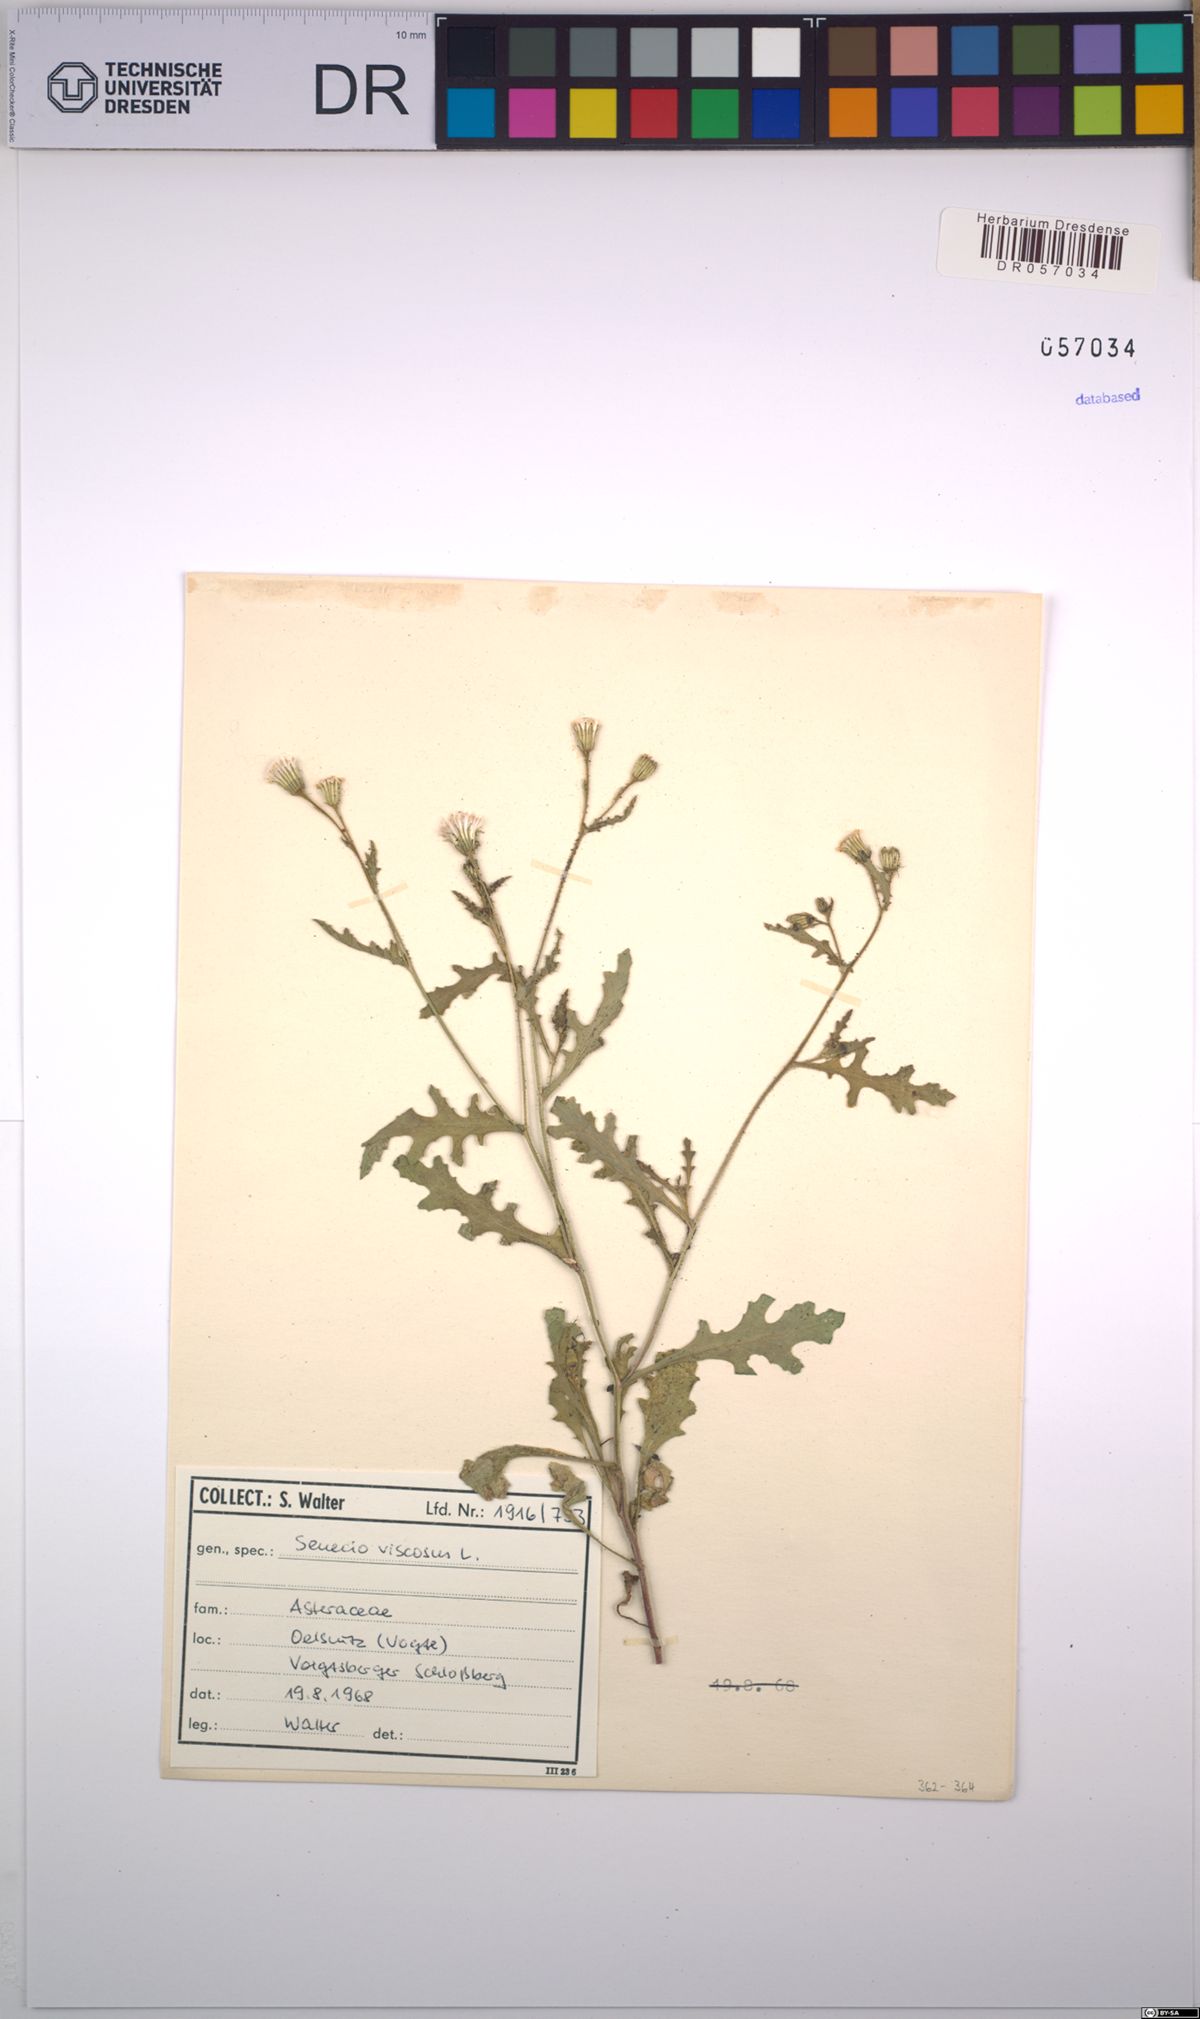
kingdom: Plantae
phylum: Tracheophyta
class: Magnoliopsida
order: Asterales
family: Asteraceae
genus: Senecio
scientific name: Senecio viscosus
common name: Sticky groundsel
